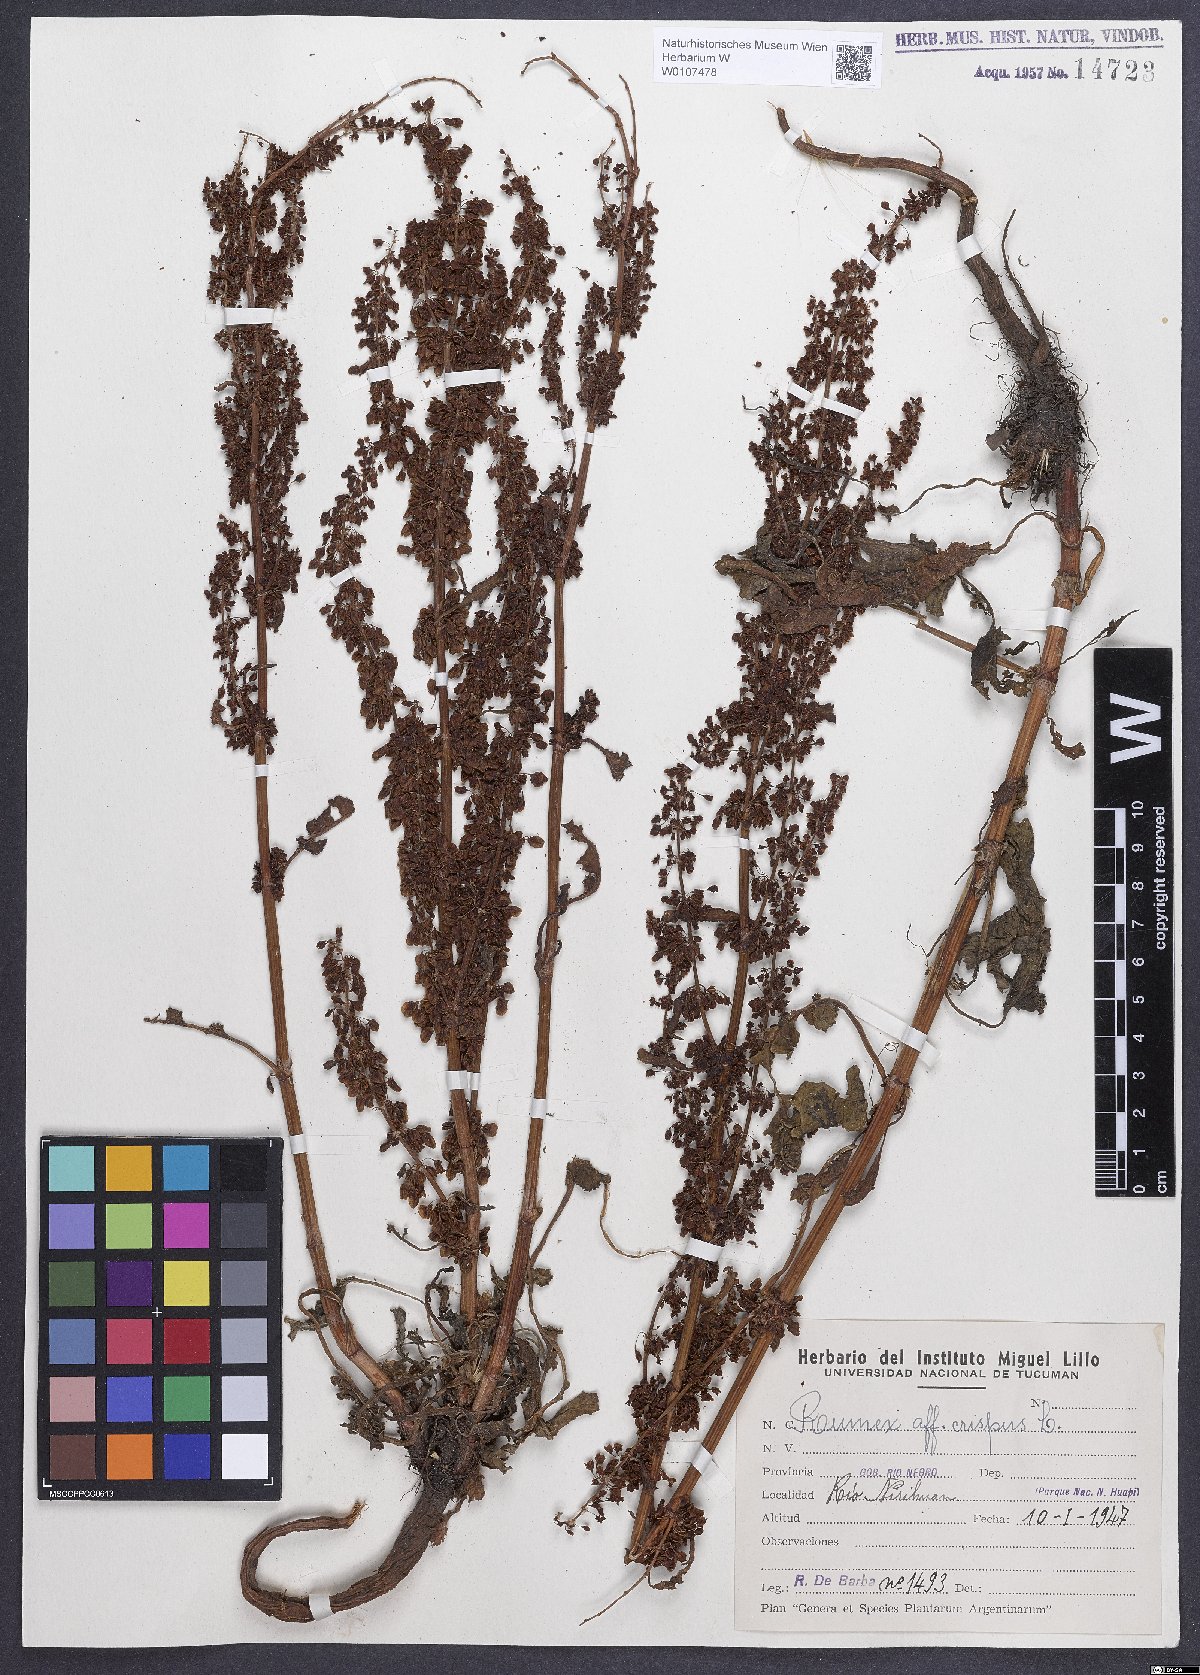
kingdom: Plantae
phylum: Tracheophyta
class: Magnoliopsida
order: Caryophyllales
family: Polygonaceae
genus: Rumex
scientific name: Rumex crispus
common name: Curled dock
